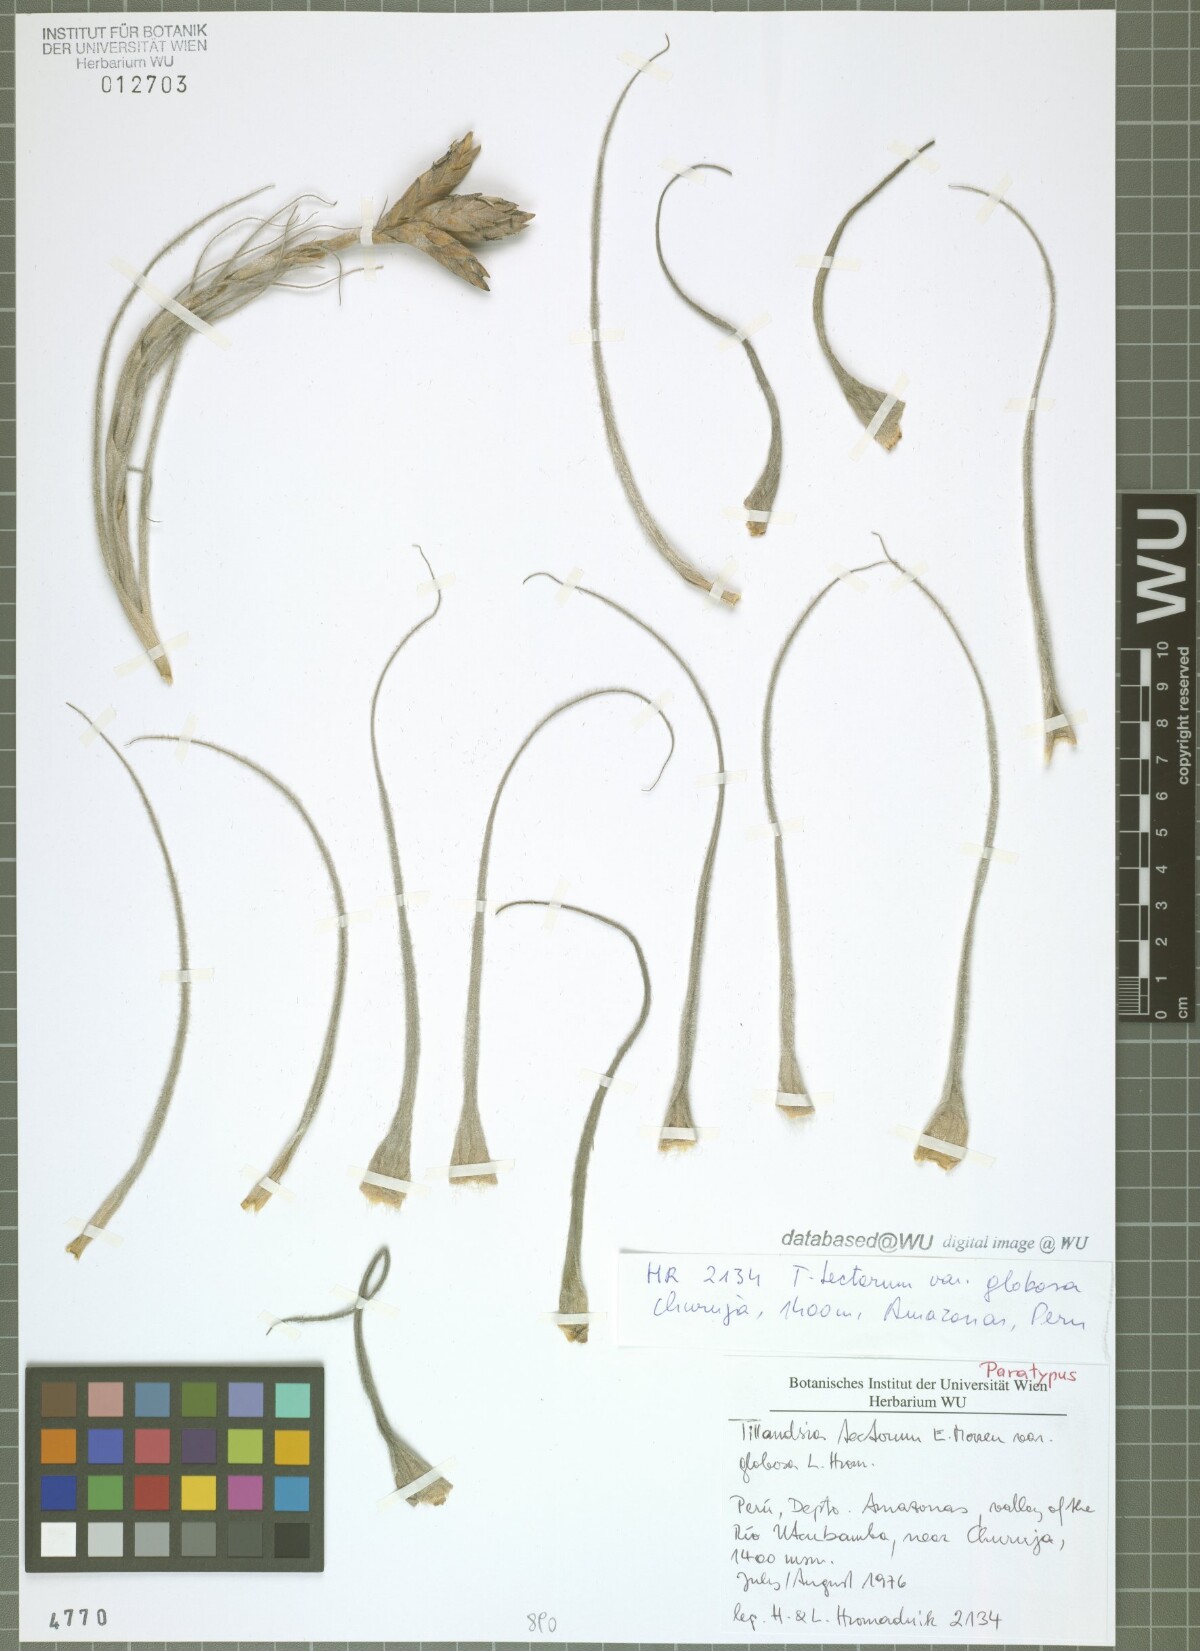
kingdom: Plantae
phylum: Tracheophyta
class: Liliopsida
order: Poales
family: Bromeliaceae
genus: Tillandsia
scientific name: Tillandsia tectorum
